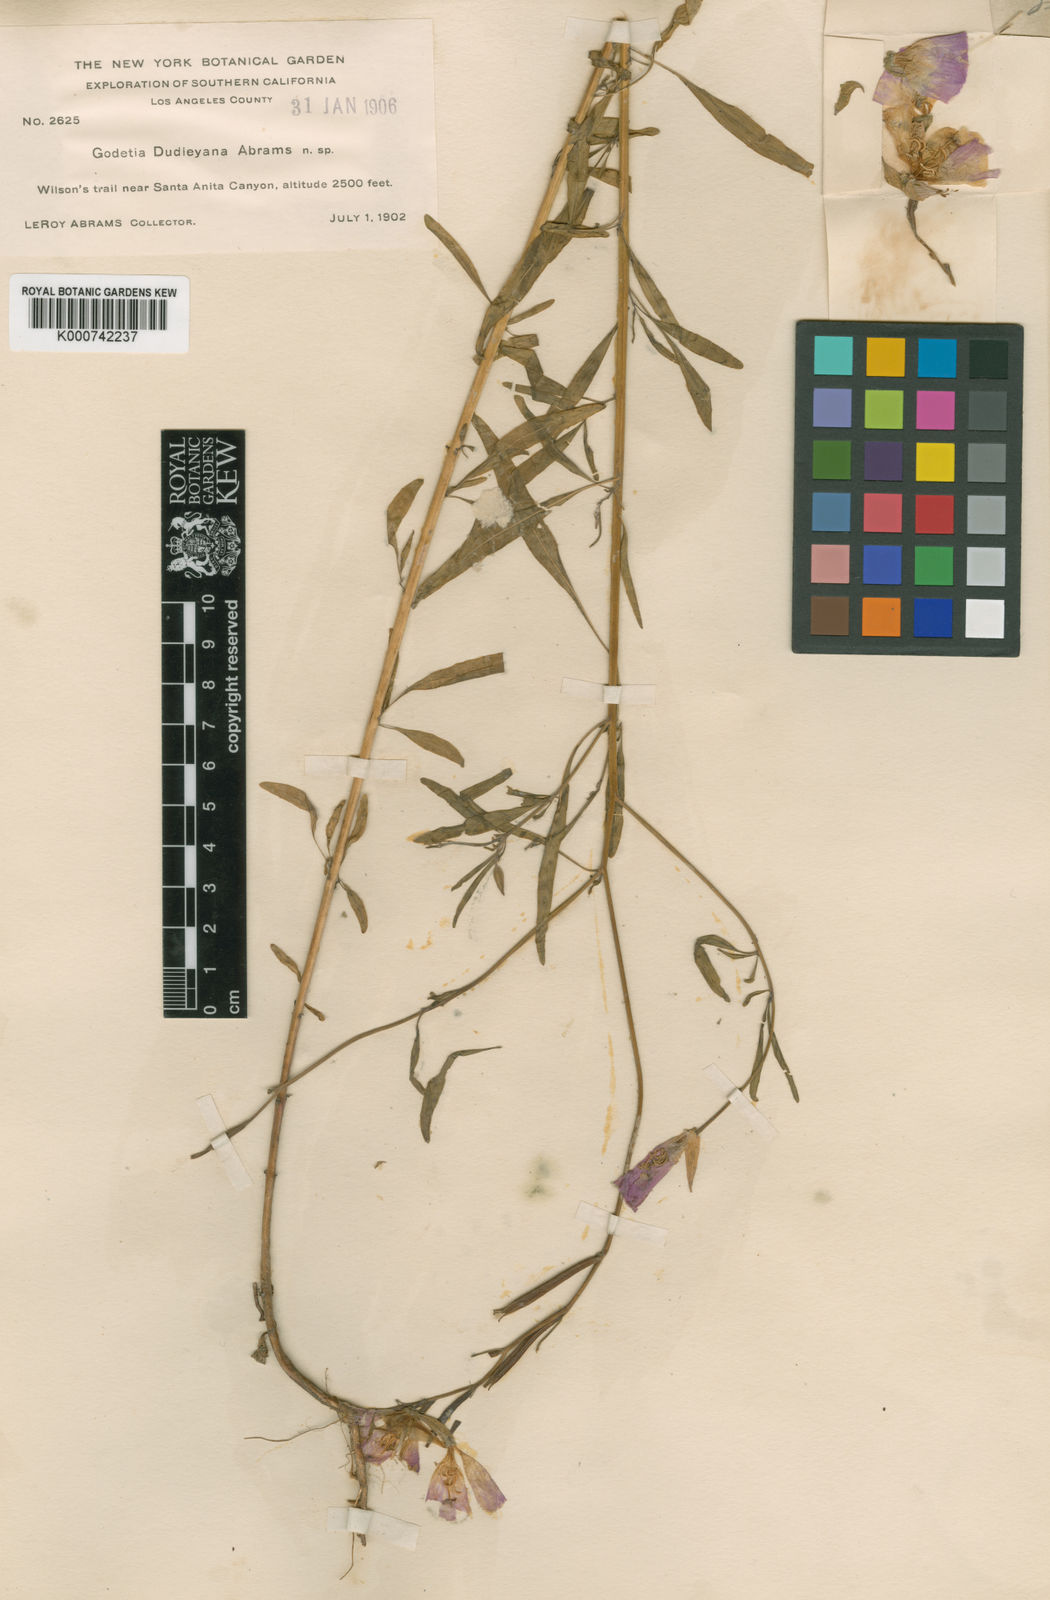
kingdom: Plantae
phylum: Tracheophyta
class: Magnoliopsida
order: Myrtales
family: Onagraceae
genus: Clarkia
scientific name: Clarkia dudleyana
